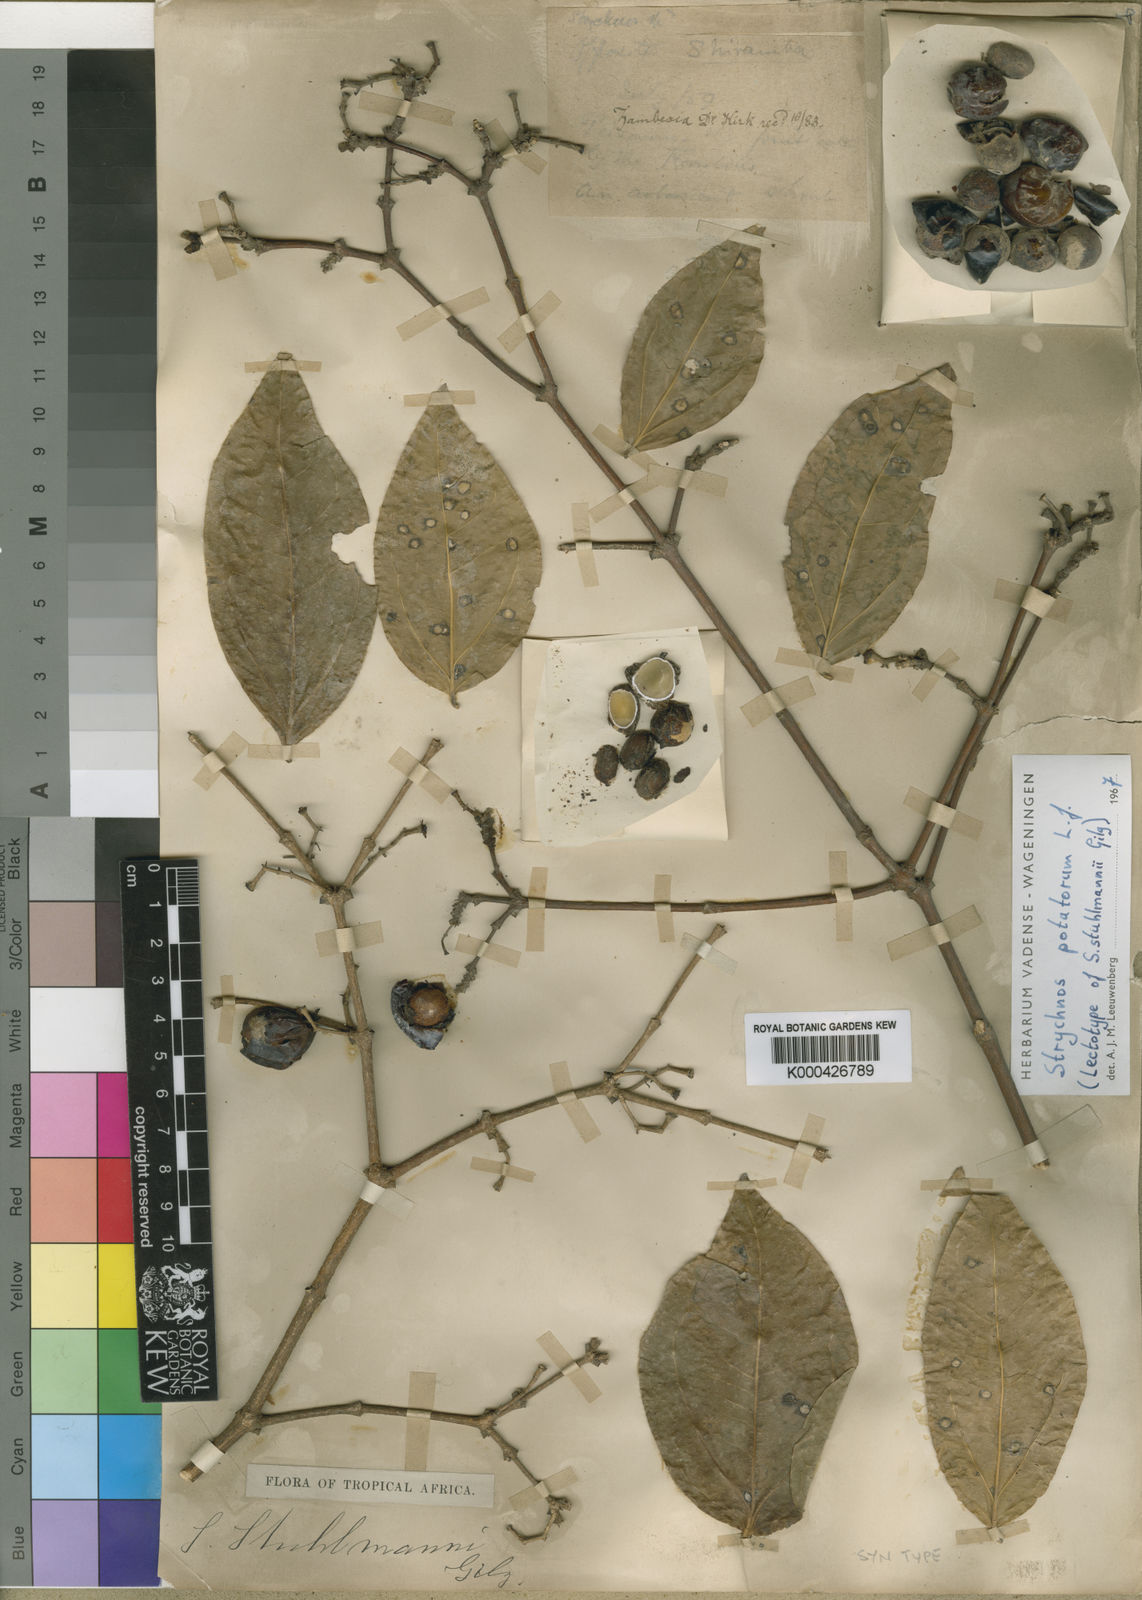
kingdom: Plantae
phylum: Tracheophyta
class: Magnoliopsida
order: Gentianales
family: Loganiaceae
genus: Strychnos
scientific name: Strychnos potatorum
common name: Clearing-nut-tree
